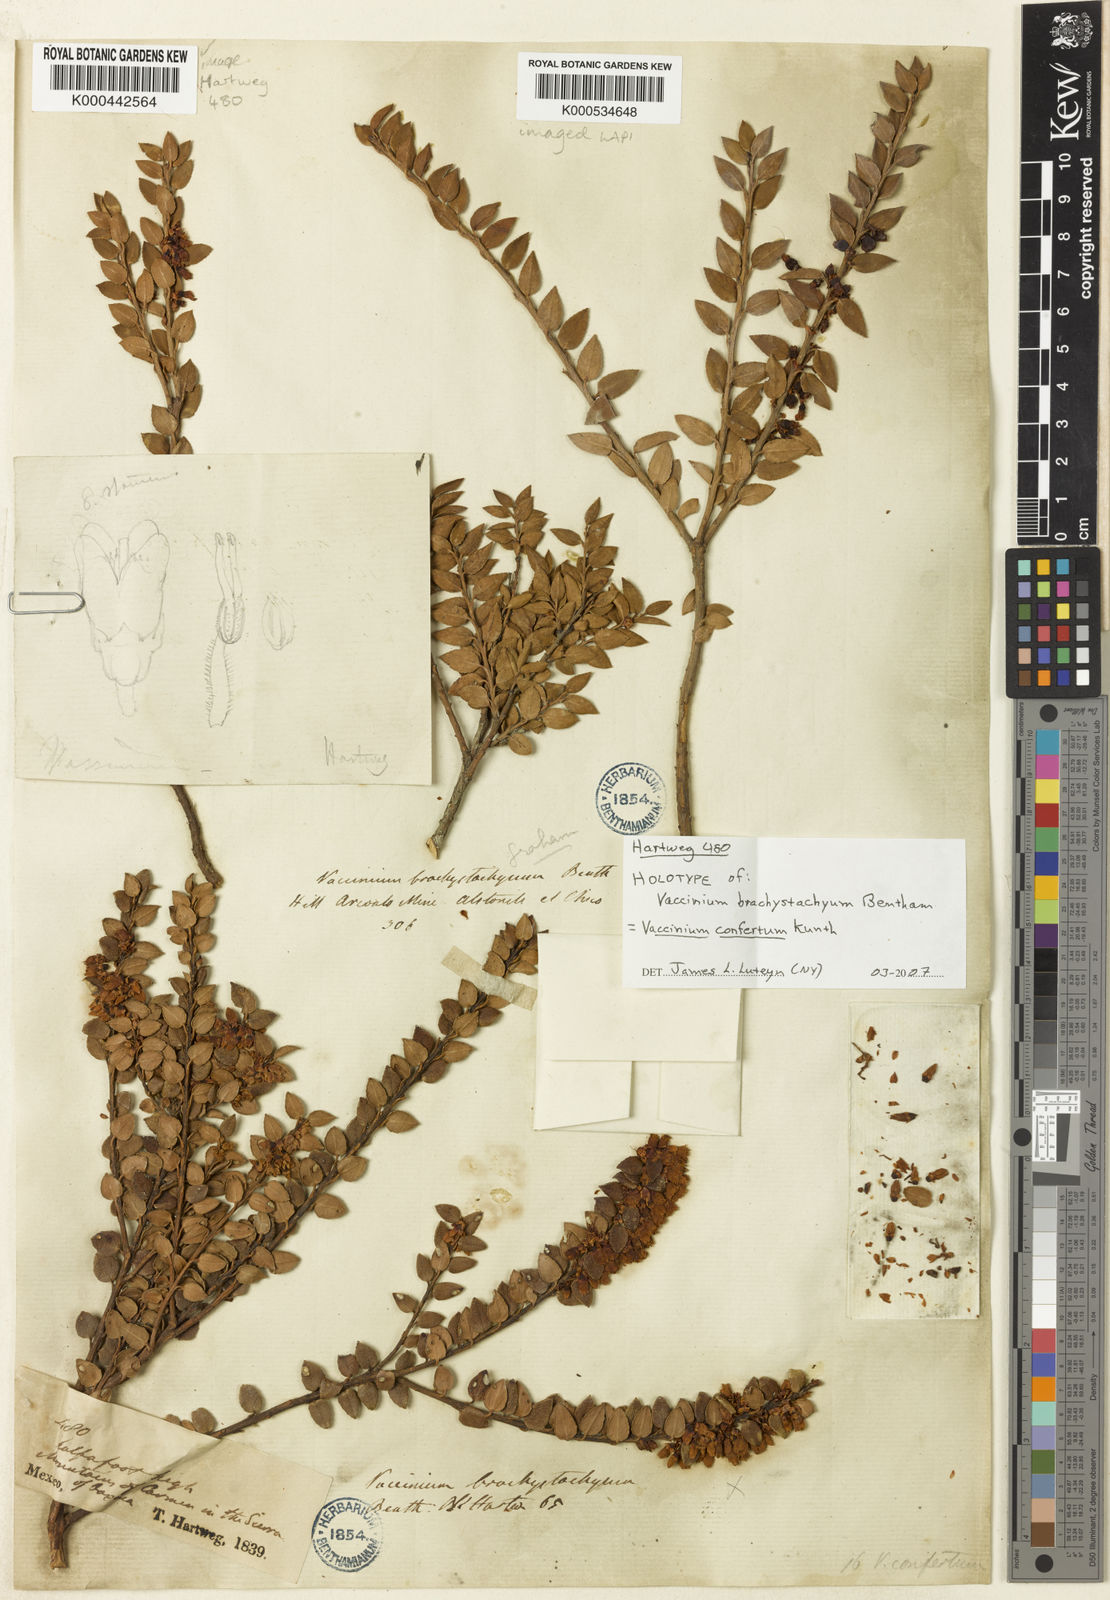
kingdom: Plantae
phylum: Tracheophyta
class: Magnoliopsida
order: Ericales
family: Ericaceae
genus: Vaccinium
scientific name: Vaccinium confertum
